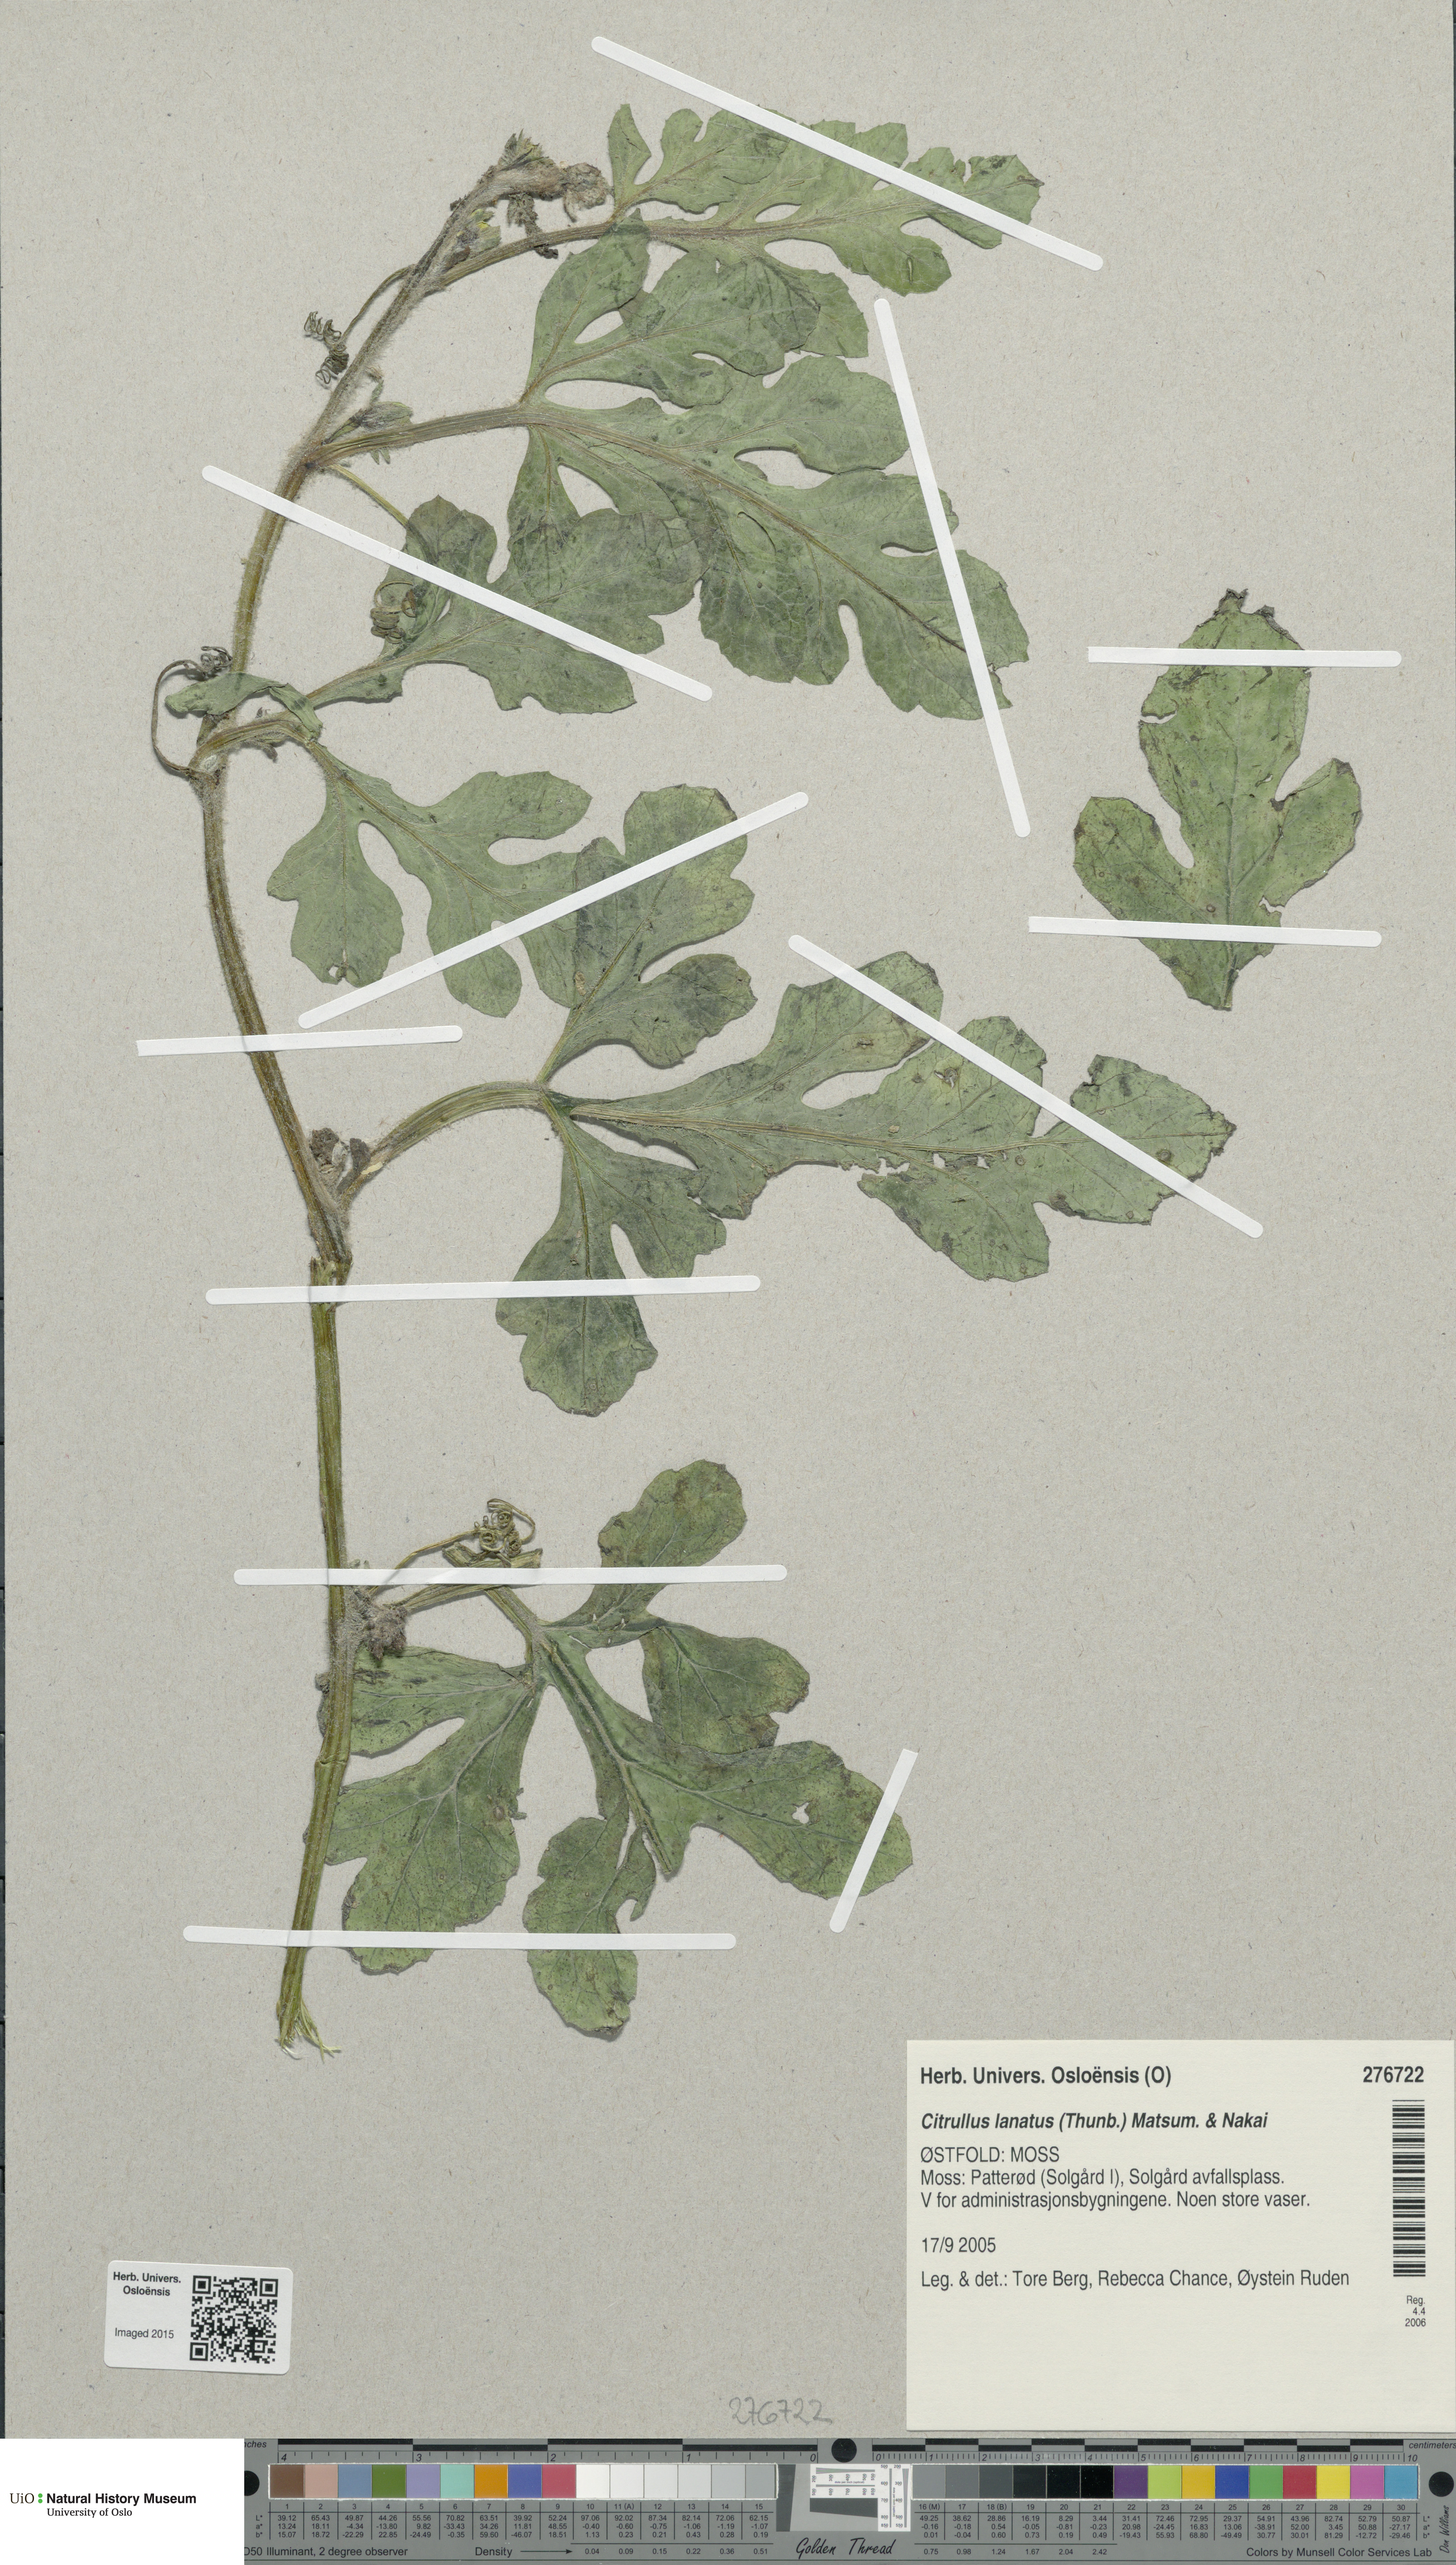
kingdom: Plantae
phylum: Tracheophyta
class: Magnoliopsida
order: Cucurbitales
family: Cucurbitaceae
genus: Citrullus
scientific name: Citrullus lanatus
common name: Watermelon
